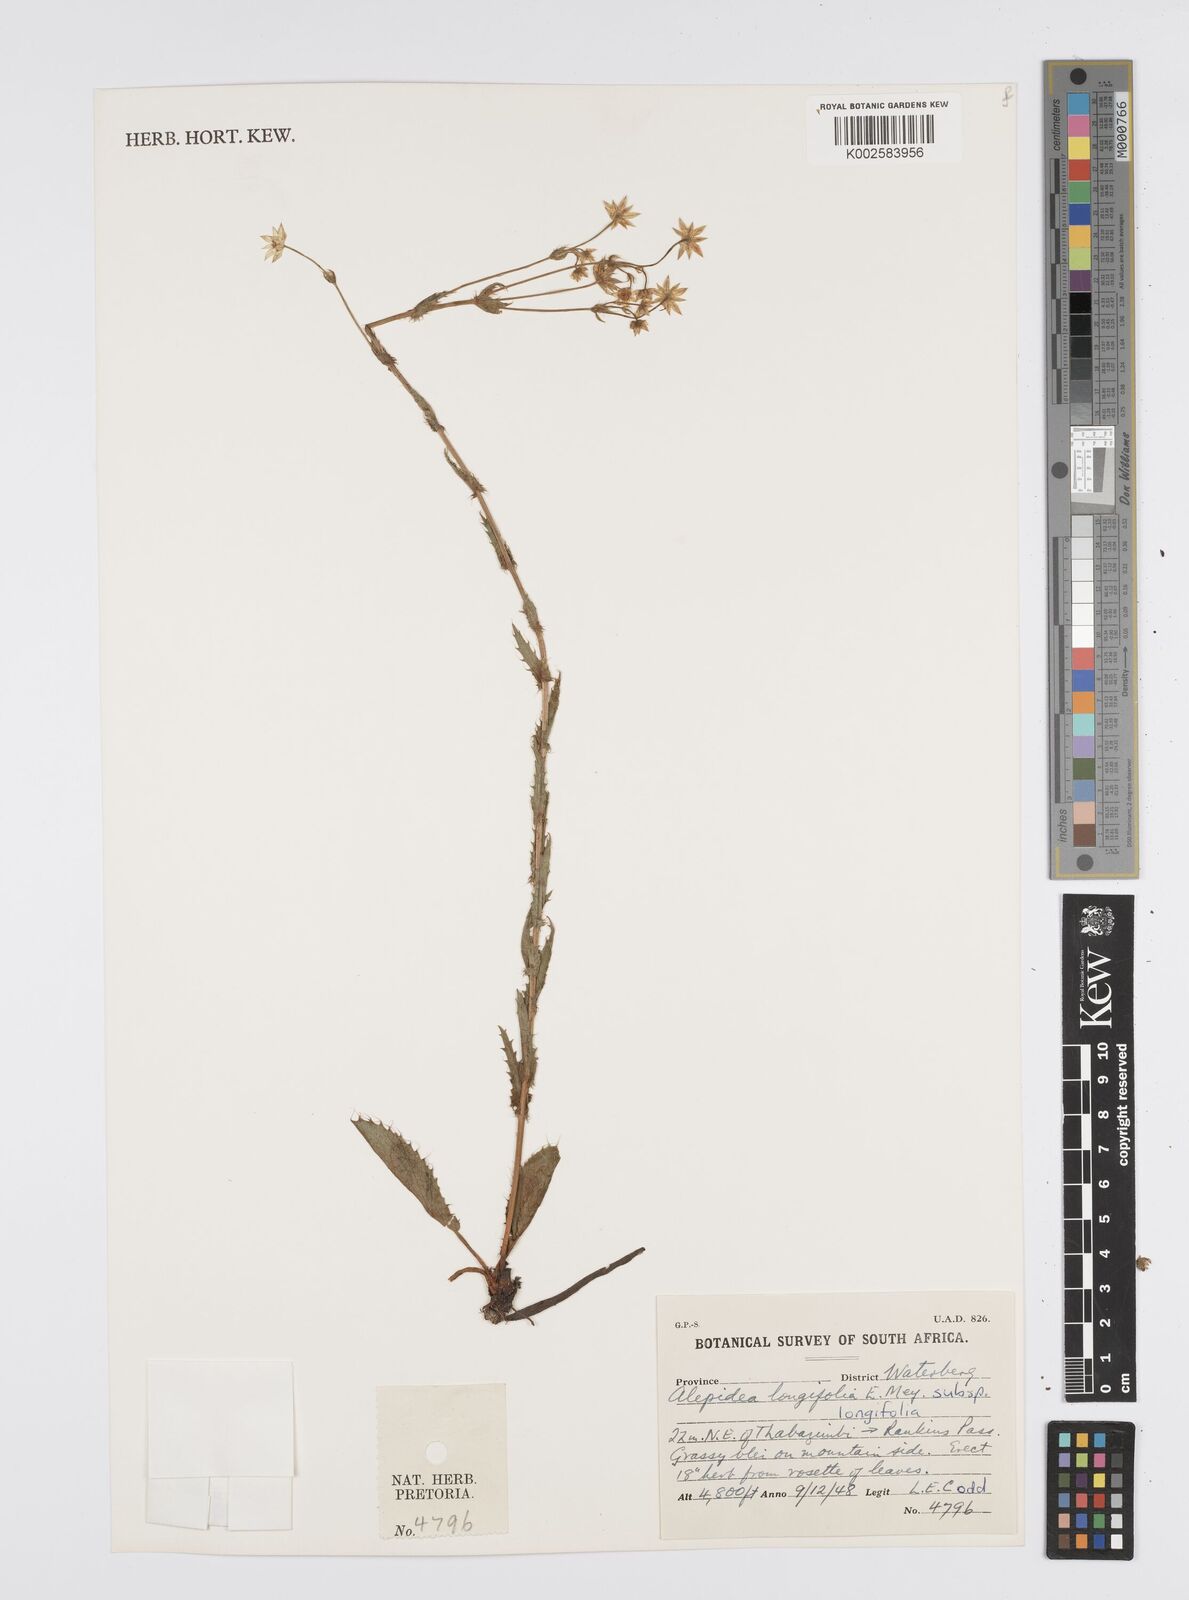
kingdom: Plantae
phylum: Tracheophyta
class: Magnoliopsida
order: Apiales
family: Apiaceae
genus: Alepidea
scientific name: Alepidea
